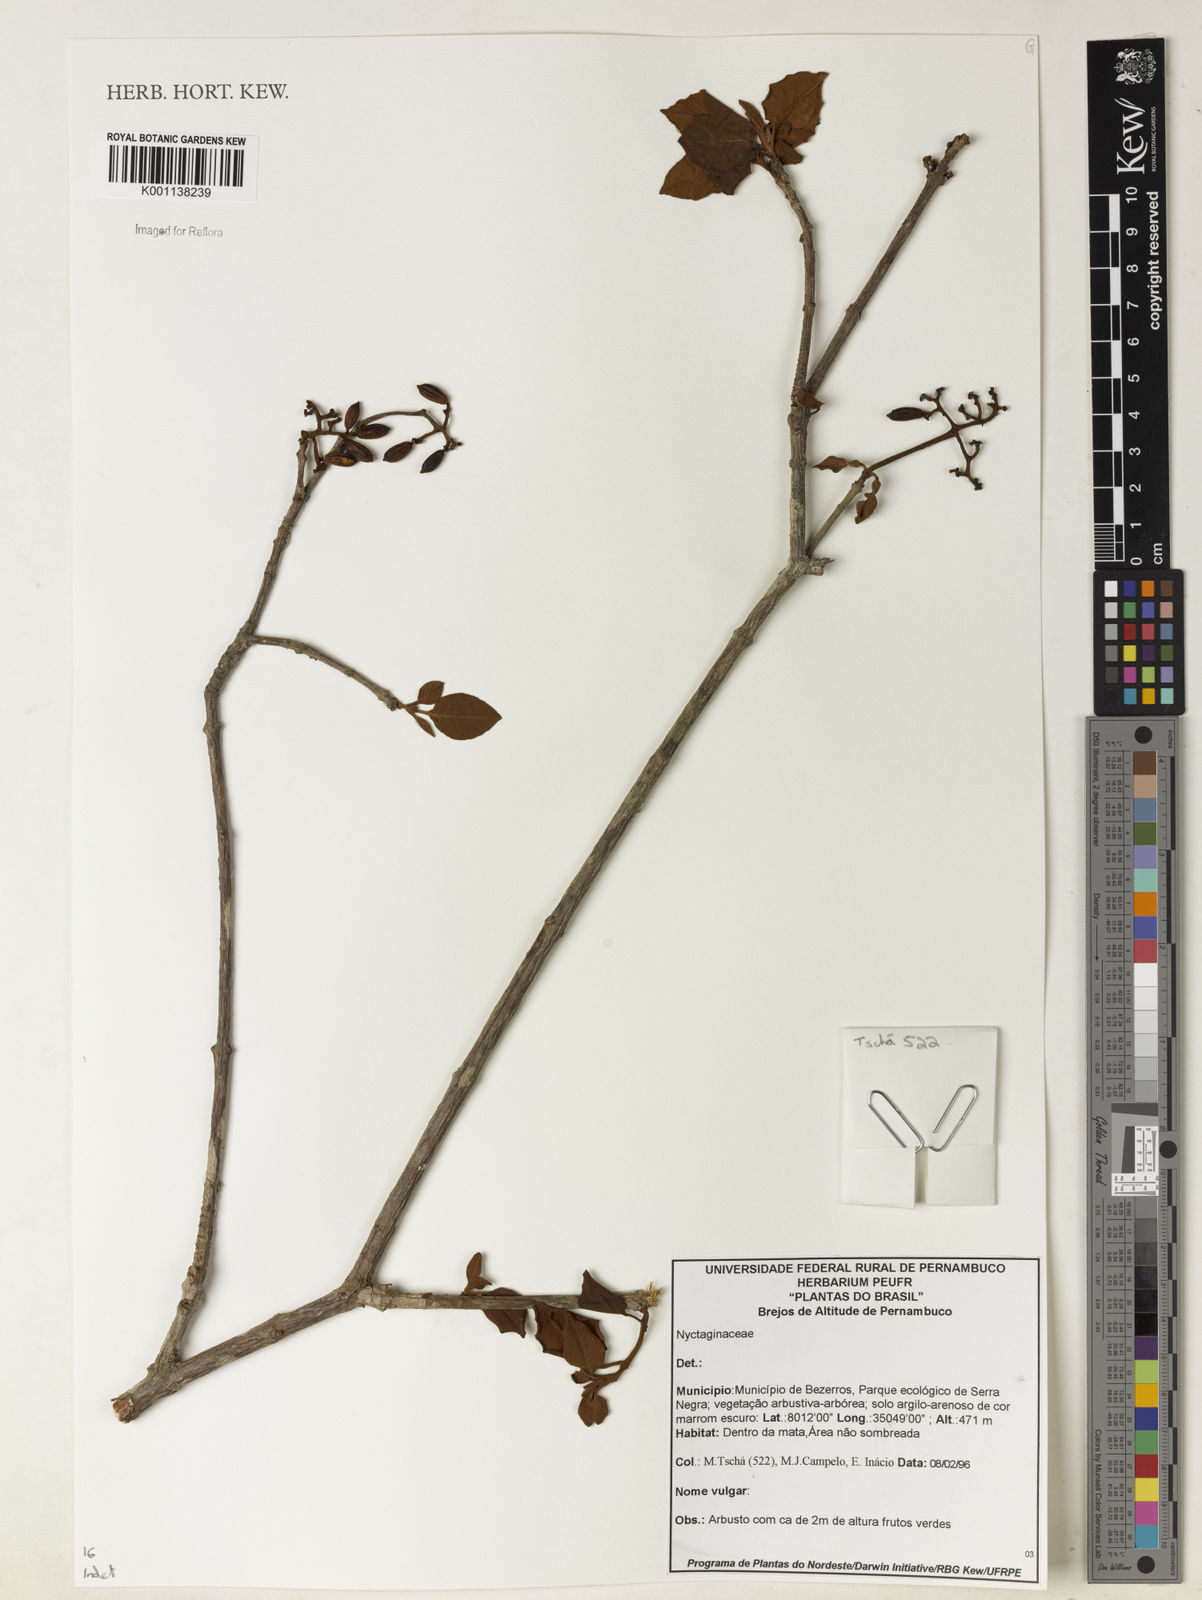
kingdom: Plantae
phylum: Tracheophyta
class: Magnoliopsida
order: Caryophyllales
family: Nyctaginaceae
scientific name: Nyctaginaceae
